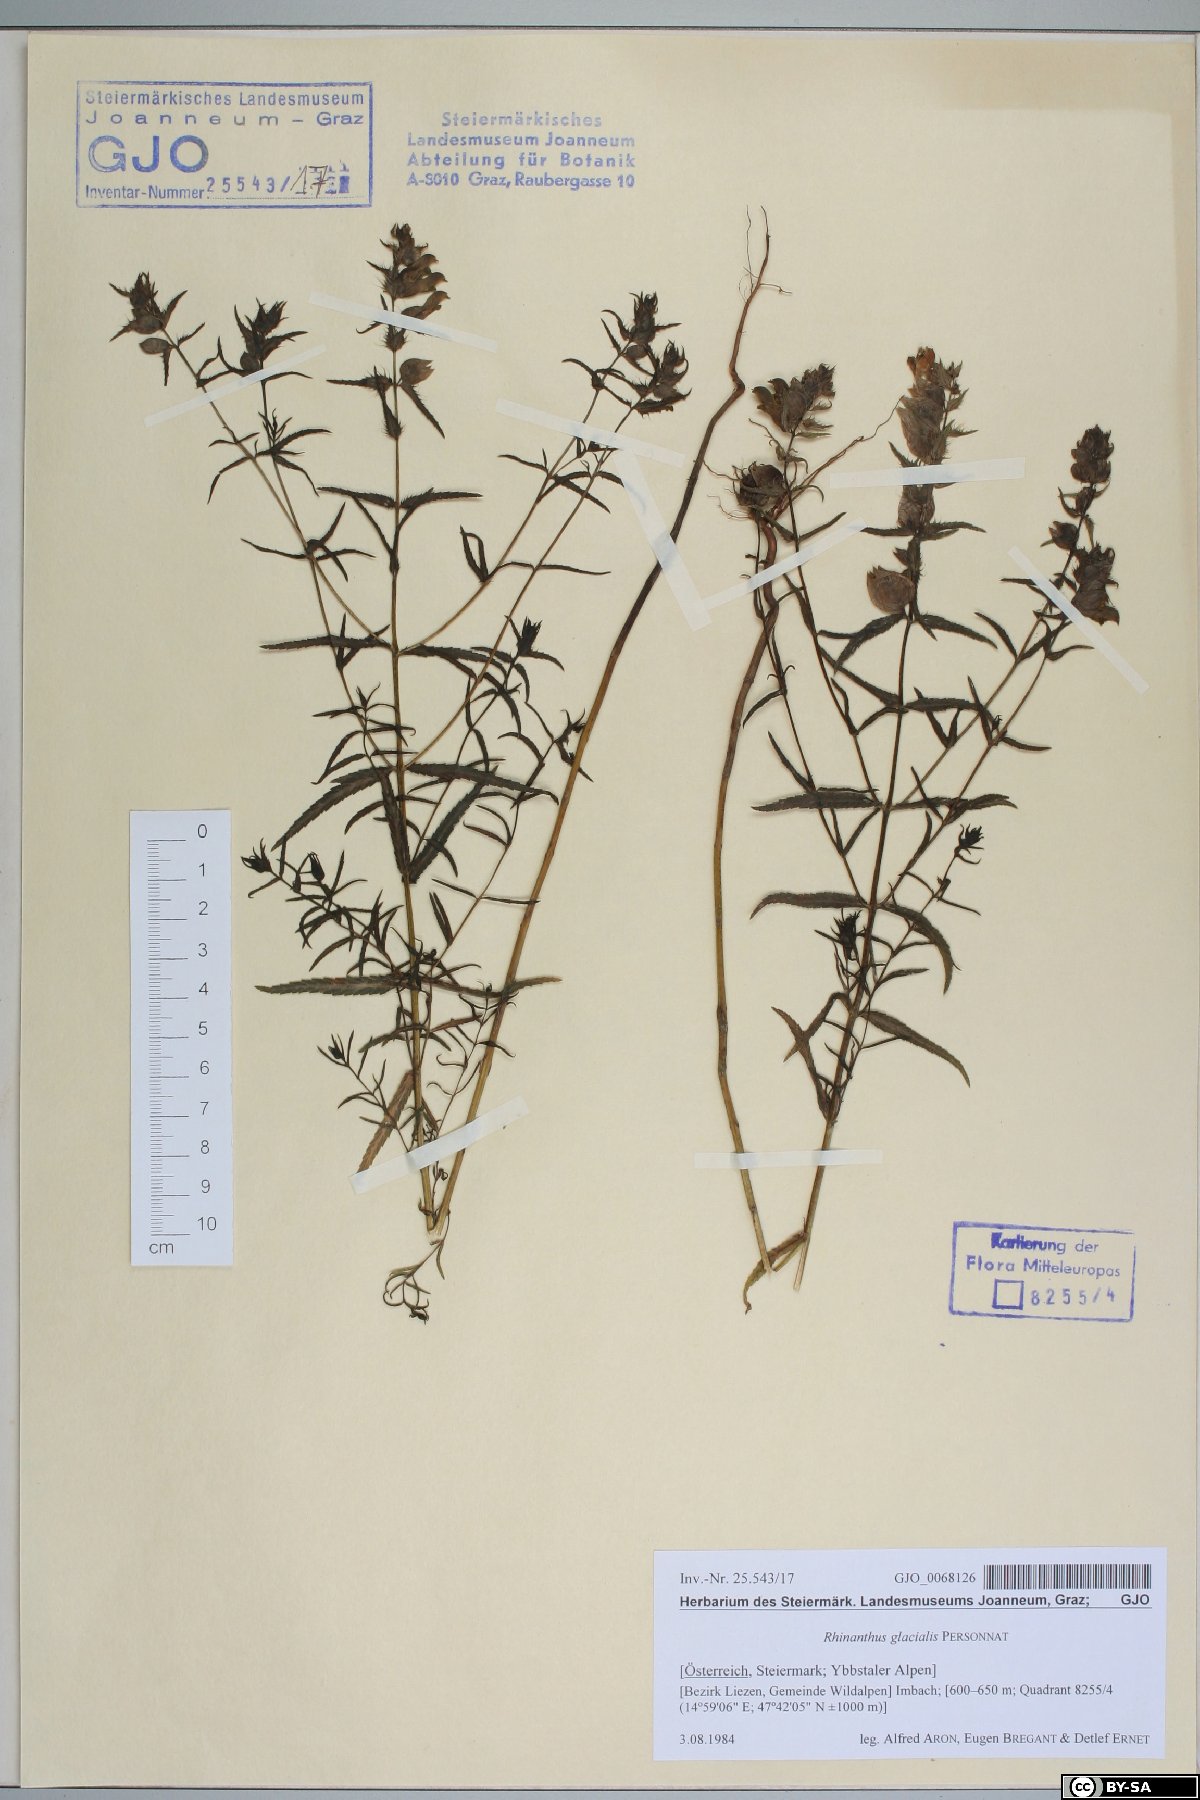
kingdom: Plantae
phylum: Tracheophyta
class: Magnoliopsida
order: Lamiales
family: Orobanchaceae
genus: Rhinanthus
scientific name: Rhinanthus glacialis
